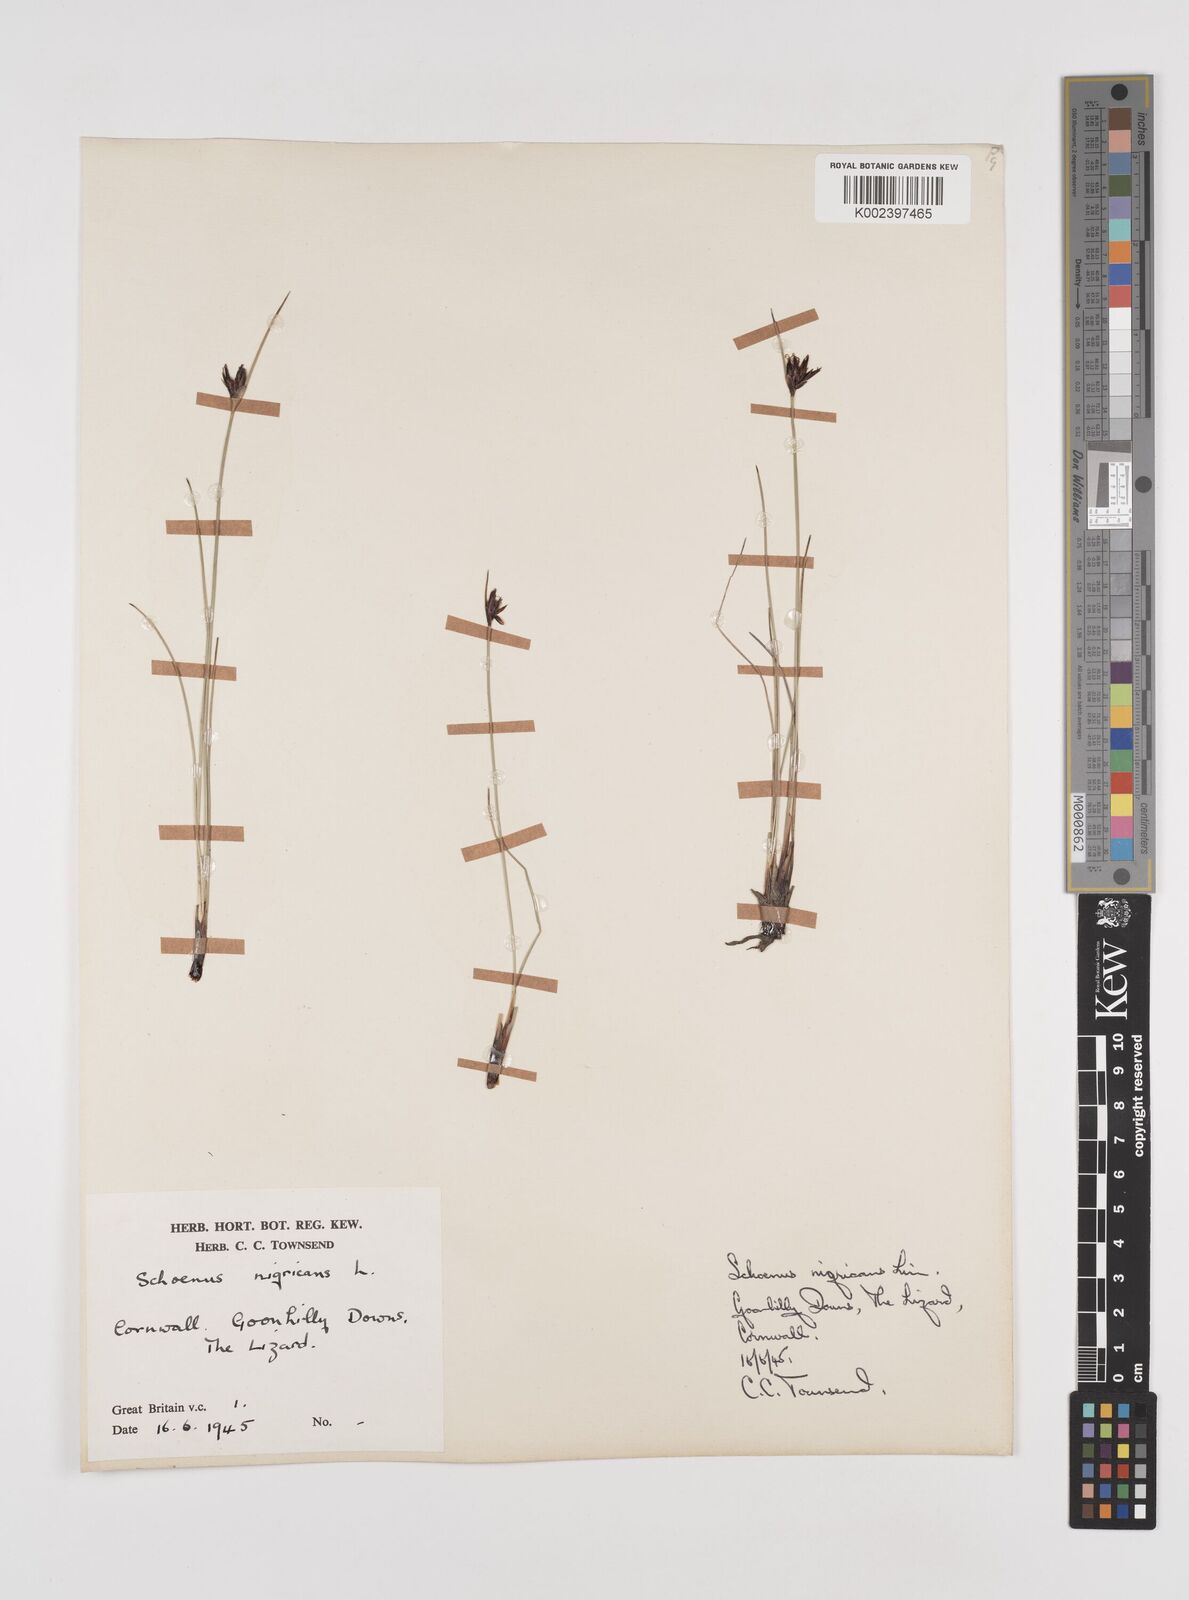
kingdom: Plantae
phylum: Tracheophyta
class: Liliopsida
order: Poales
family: Cyperaceae
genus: Schoenus
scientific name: Schoenus nigricans
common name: Black bog-rush
